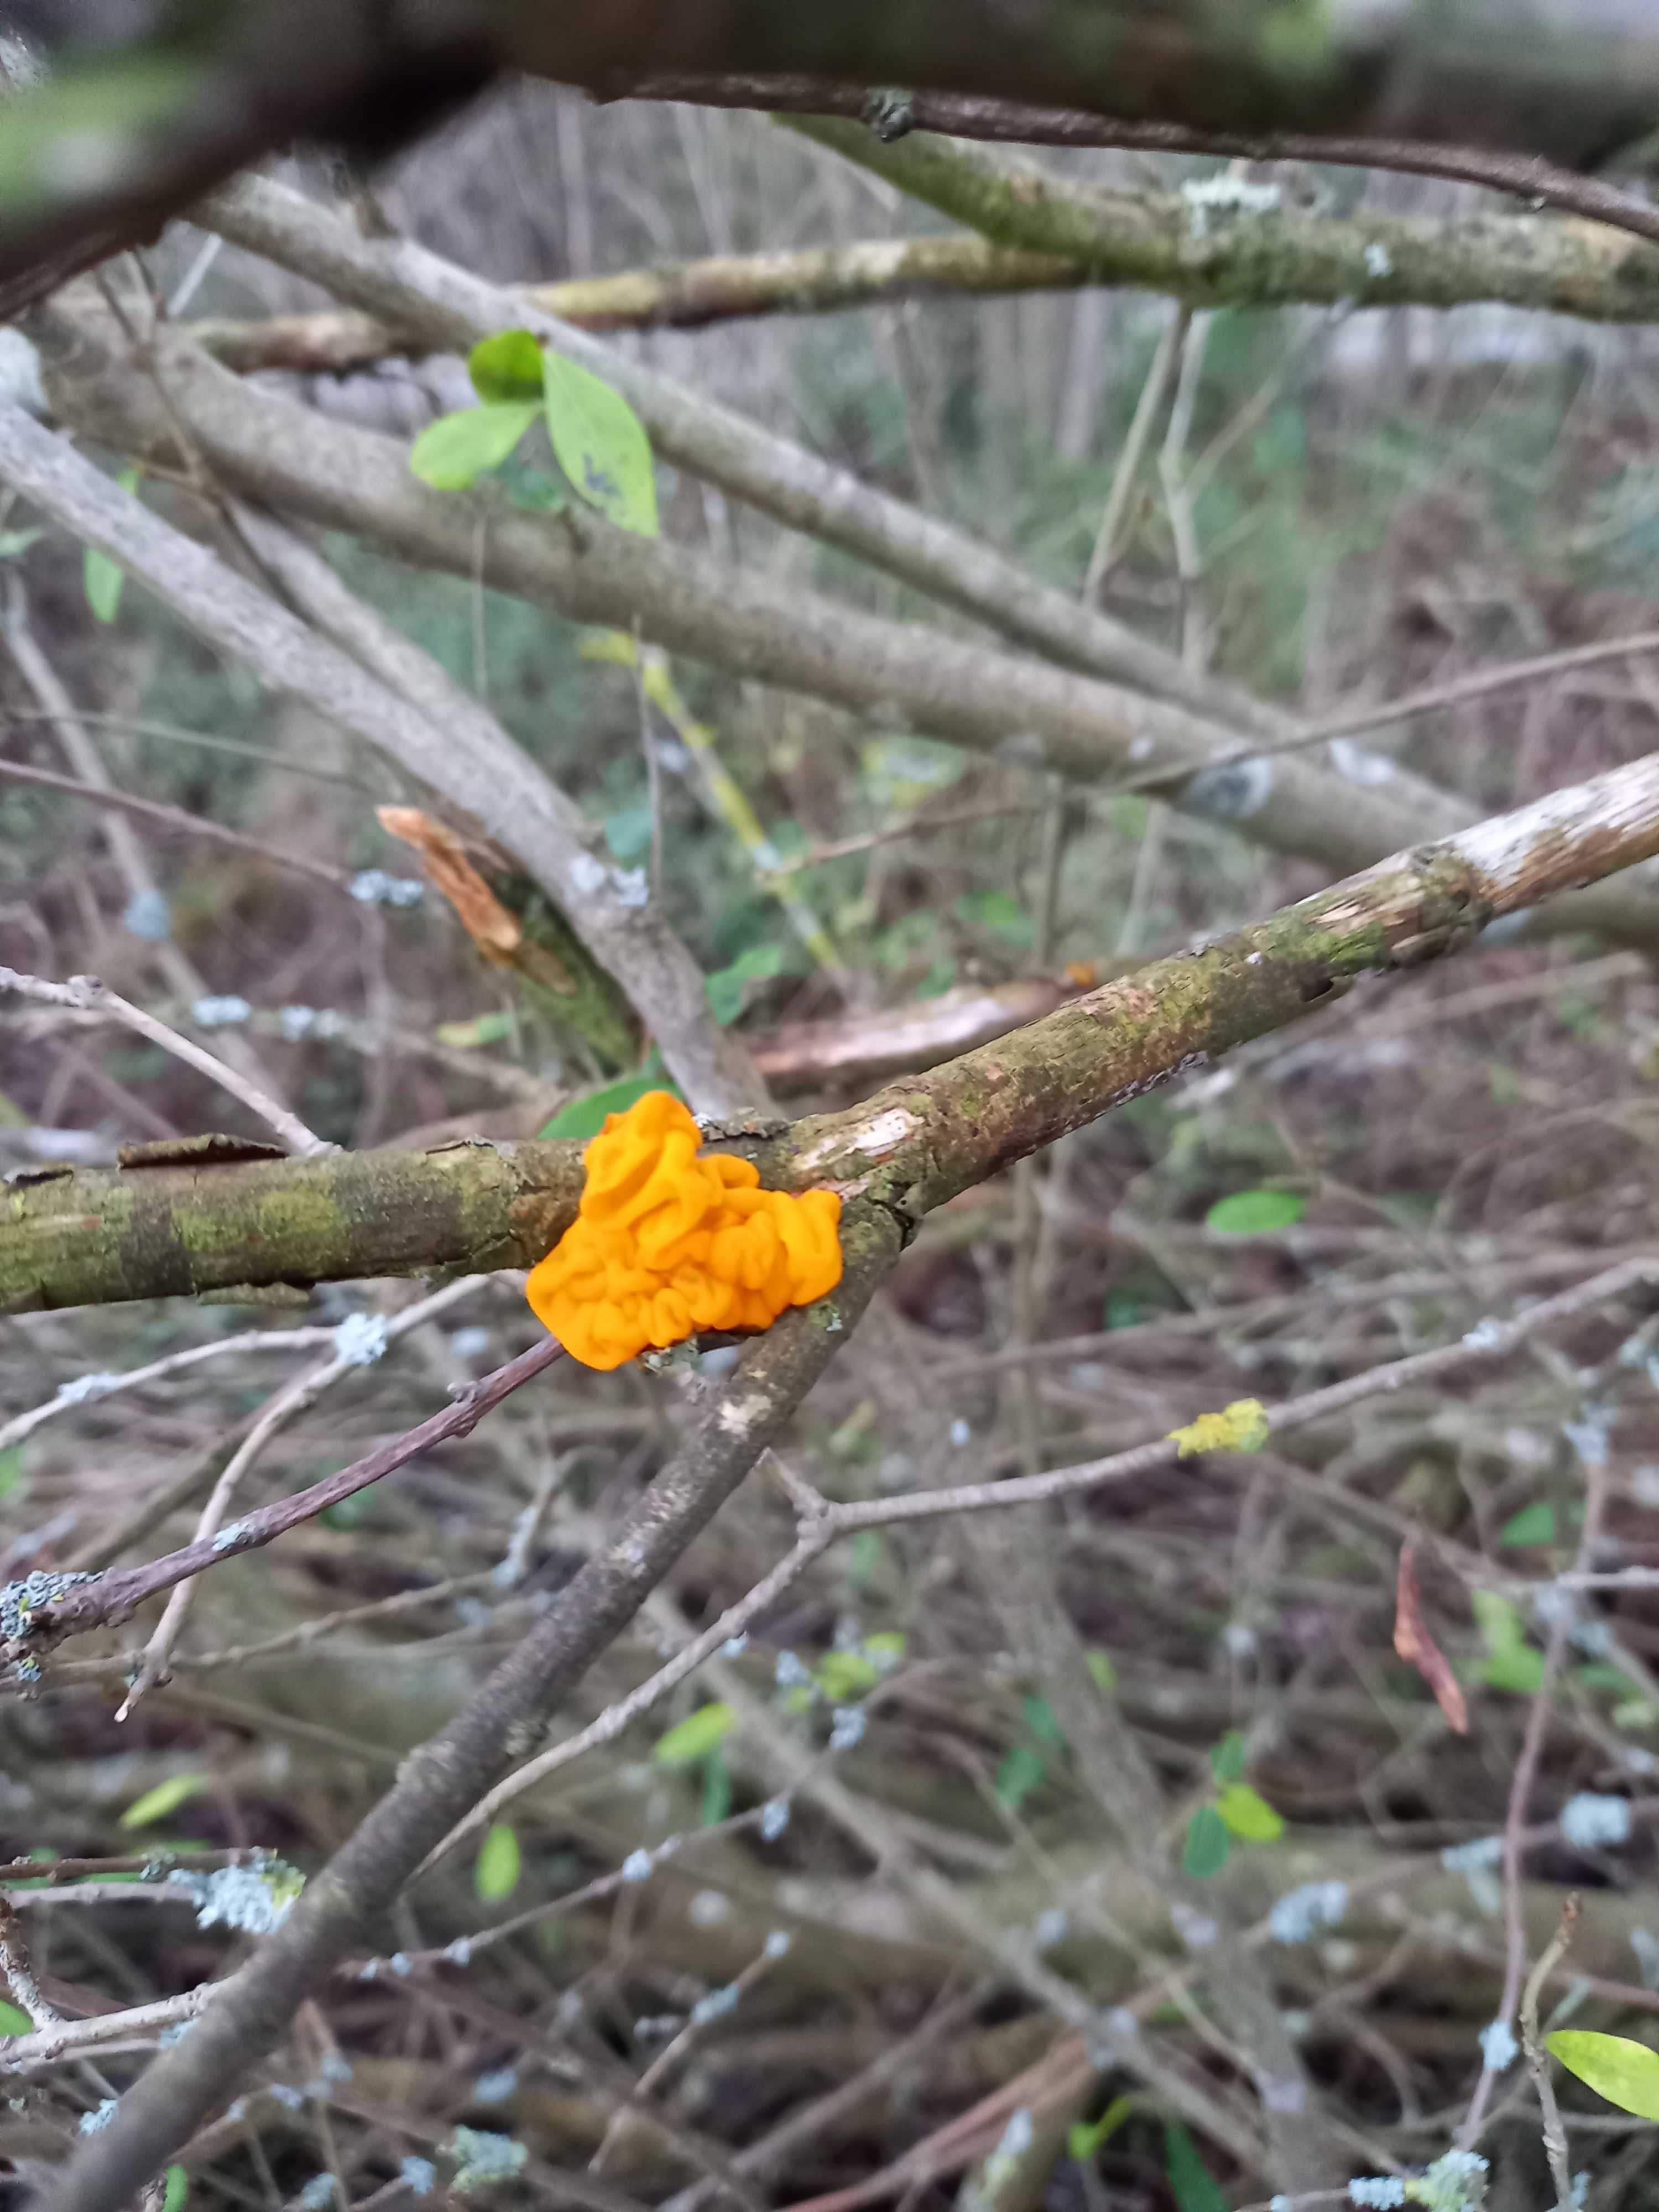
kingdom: Fungi
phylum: Basidiomycota
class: Tremellomycetes
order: Tremellales
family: Tremellaceae
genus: Tremella
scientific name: Tremella mesenterica
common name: gul bævresvamp
